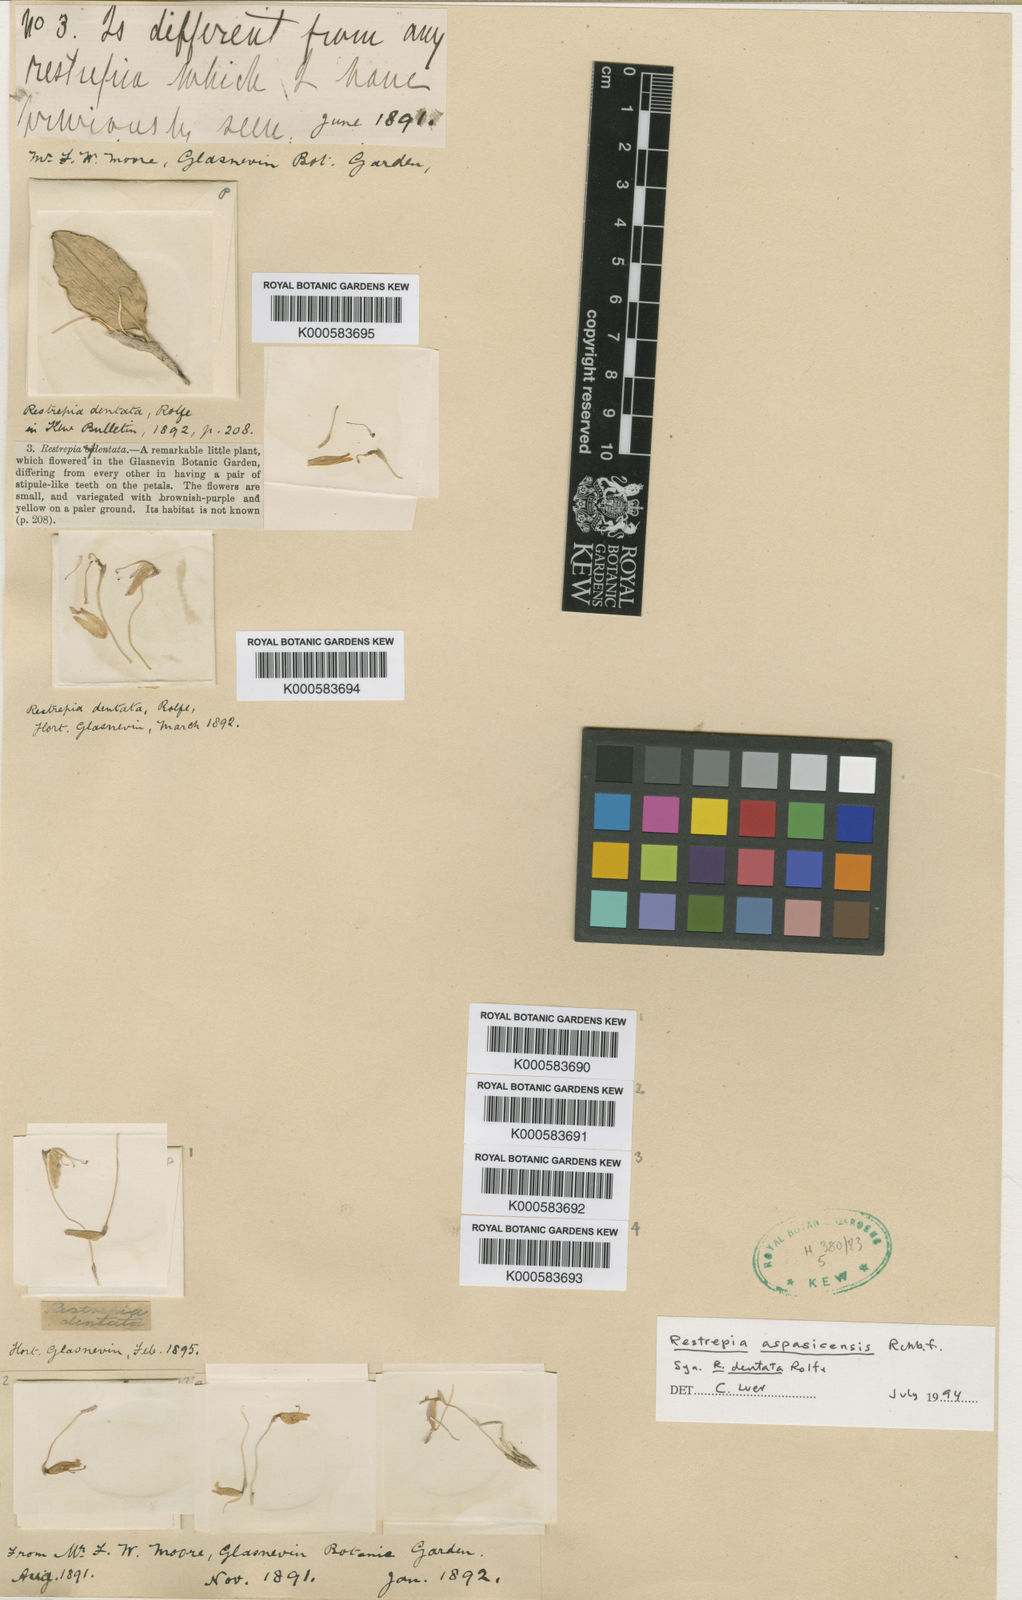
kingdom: Plantae
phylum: Tracheophyta
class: Liliopsida
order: Asparagales
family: Orchidaceae
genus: Restrepia
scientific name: Restrepia aspasicensis
